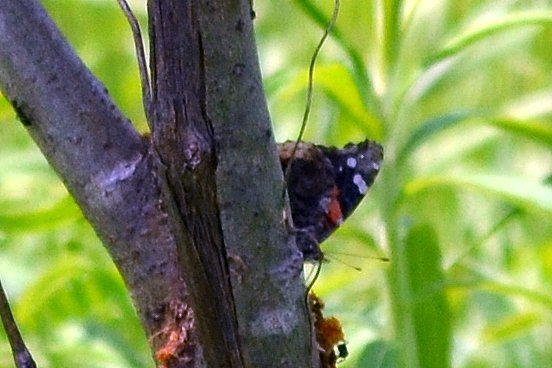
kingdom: Animalia
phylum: Arthropoda
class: Insecta
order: Lepidoptera
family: Nymphalidae
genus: Vanessa
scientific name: Vanessa atalanta
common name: Red Admiral
